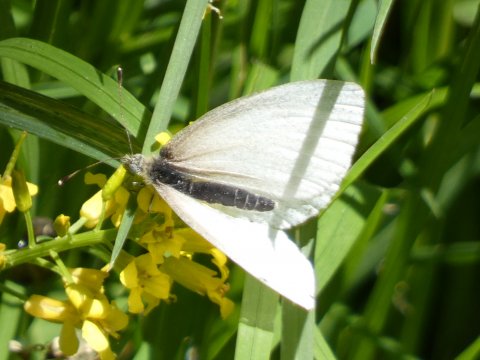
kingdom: Animalia
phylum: Arthropoda
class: Insecta
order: Lepidoptera
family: Pieridae
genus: Pieris
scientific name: Pieris virginiensis
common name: West Virginia White
